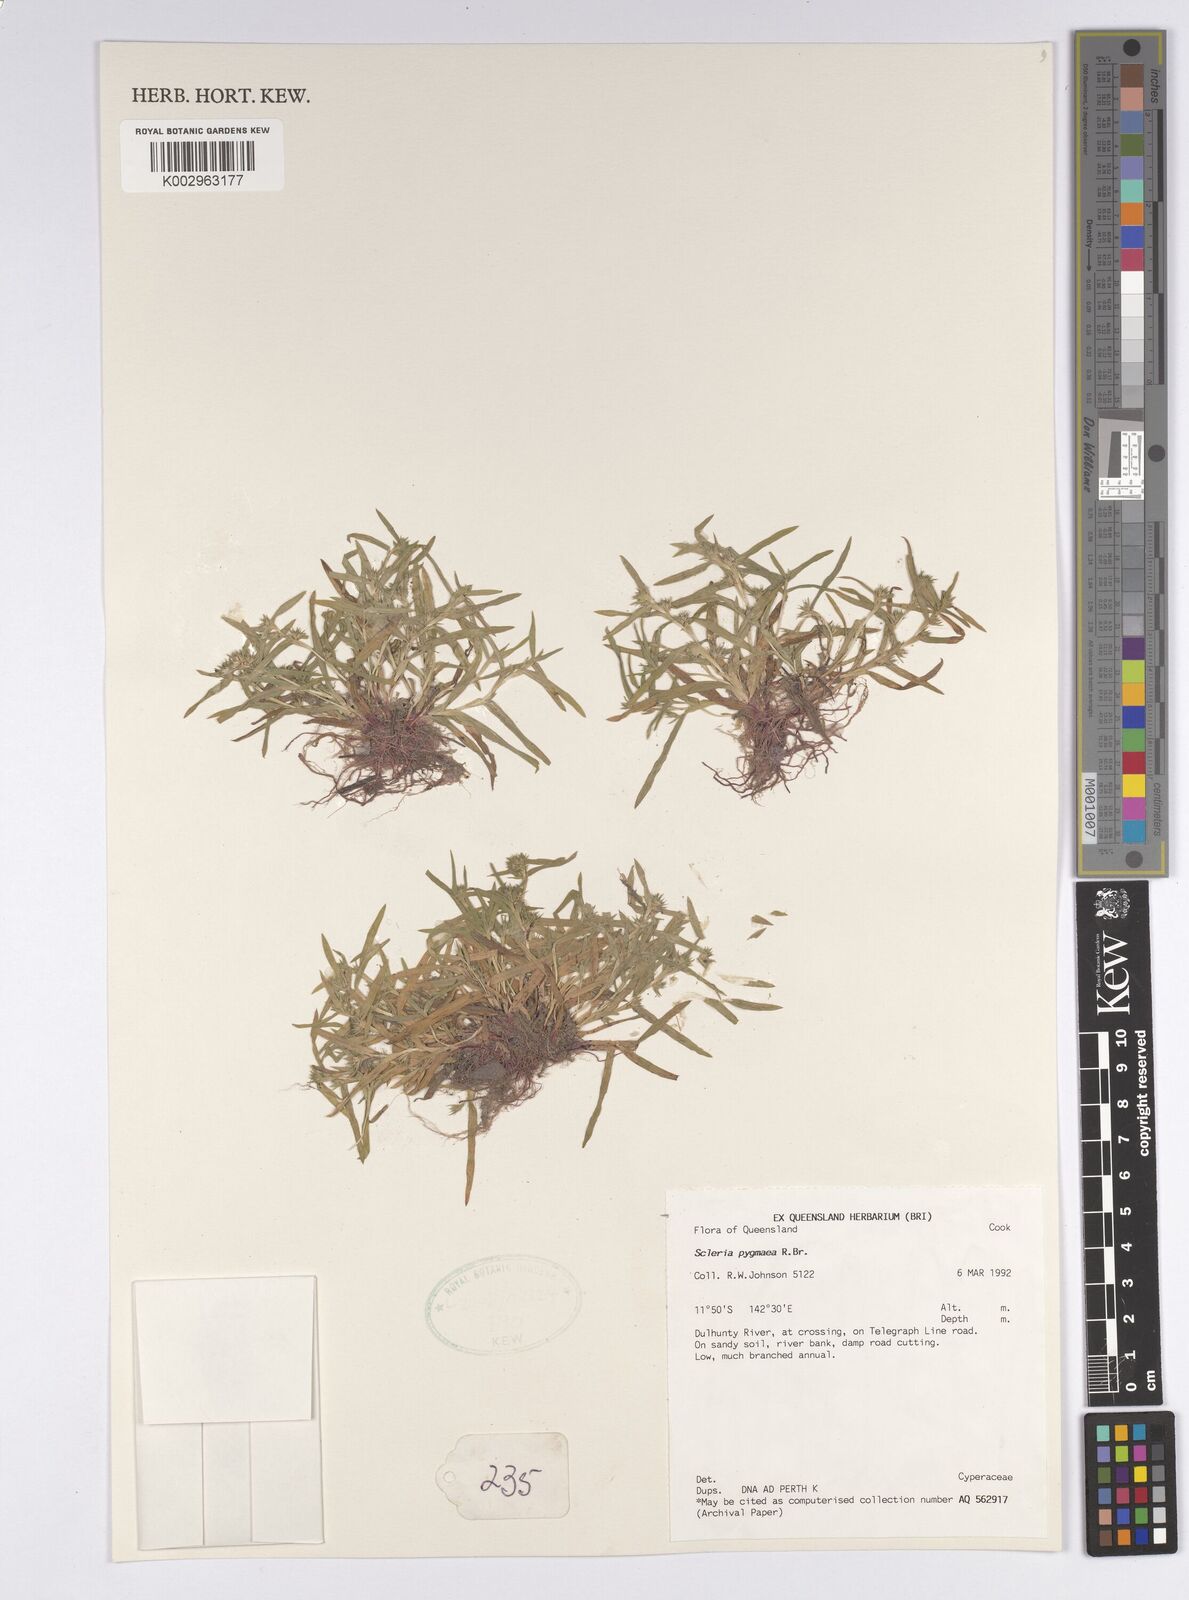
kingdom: Plantae
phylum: Tracheophyta
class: Liliopsida
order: Poales
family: Cyperaceae
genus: Diplacrum
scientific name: Diplacrum pygmaeum
